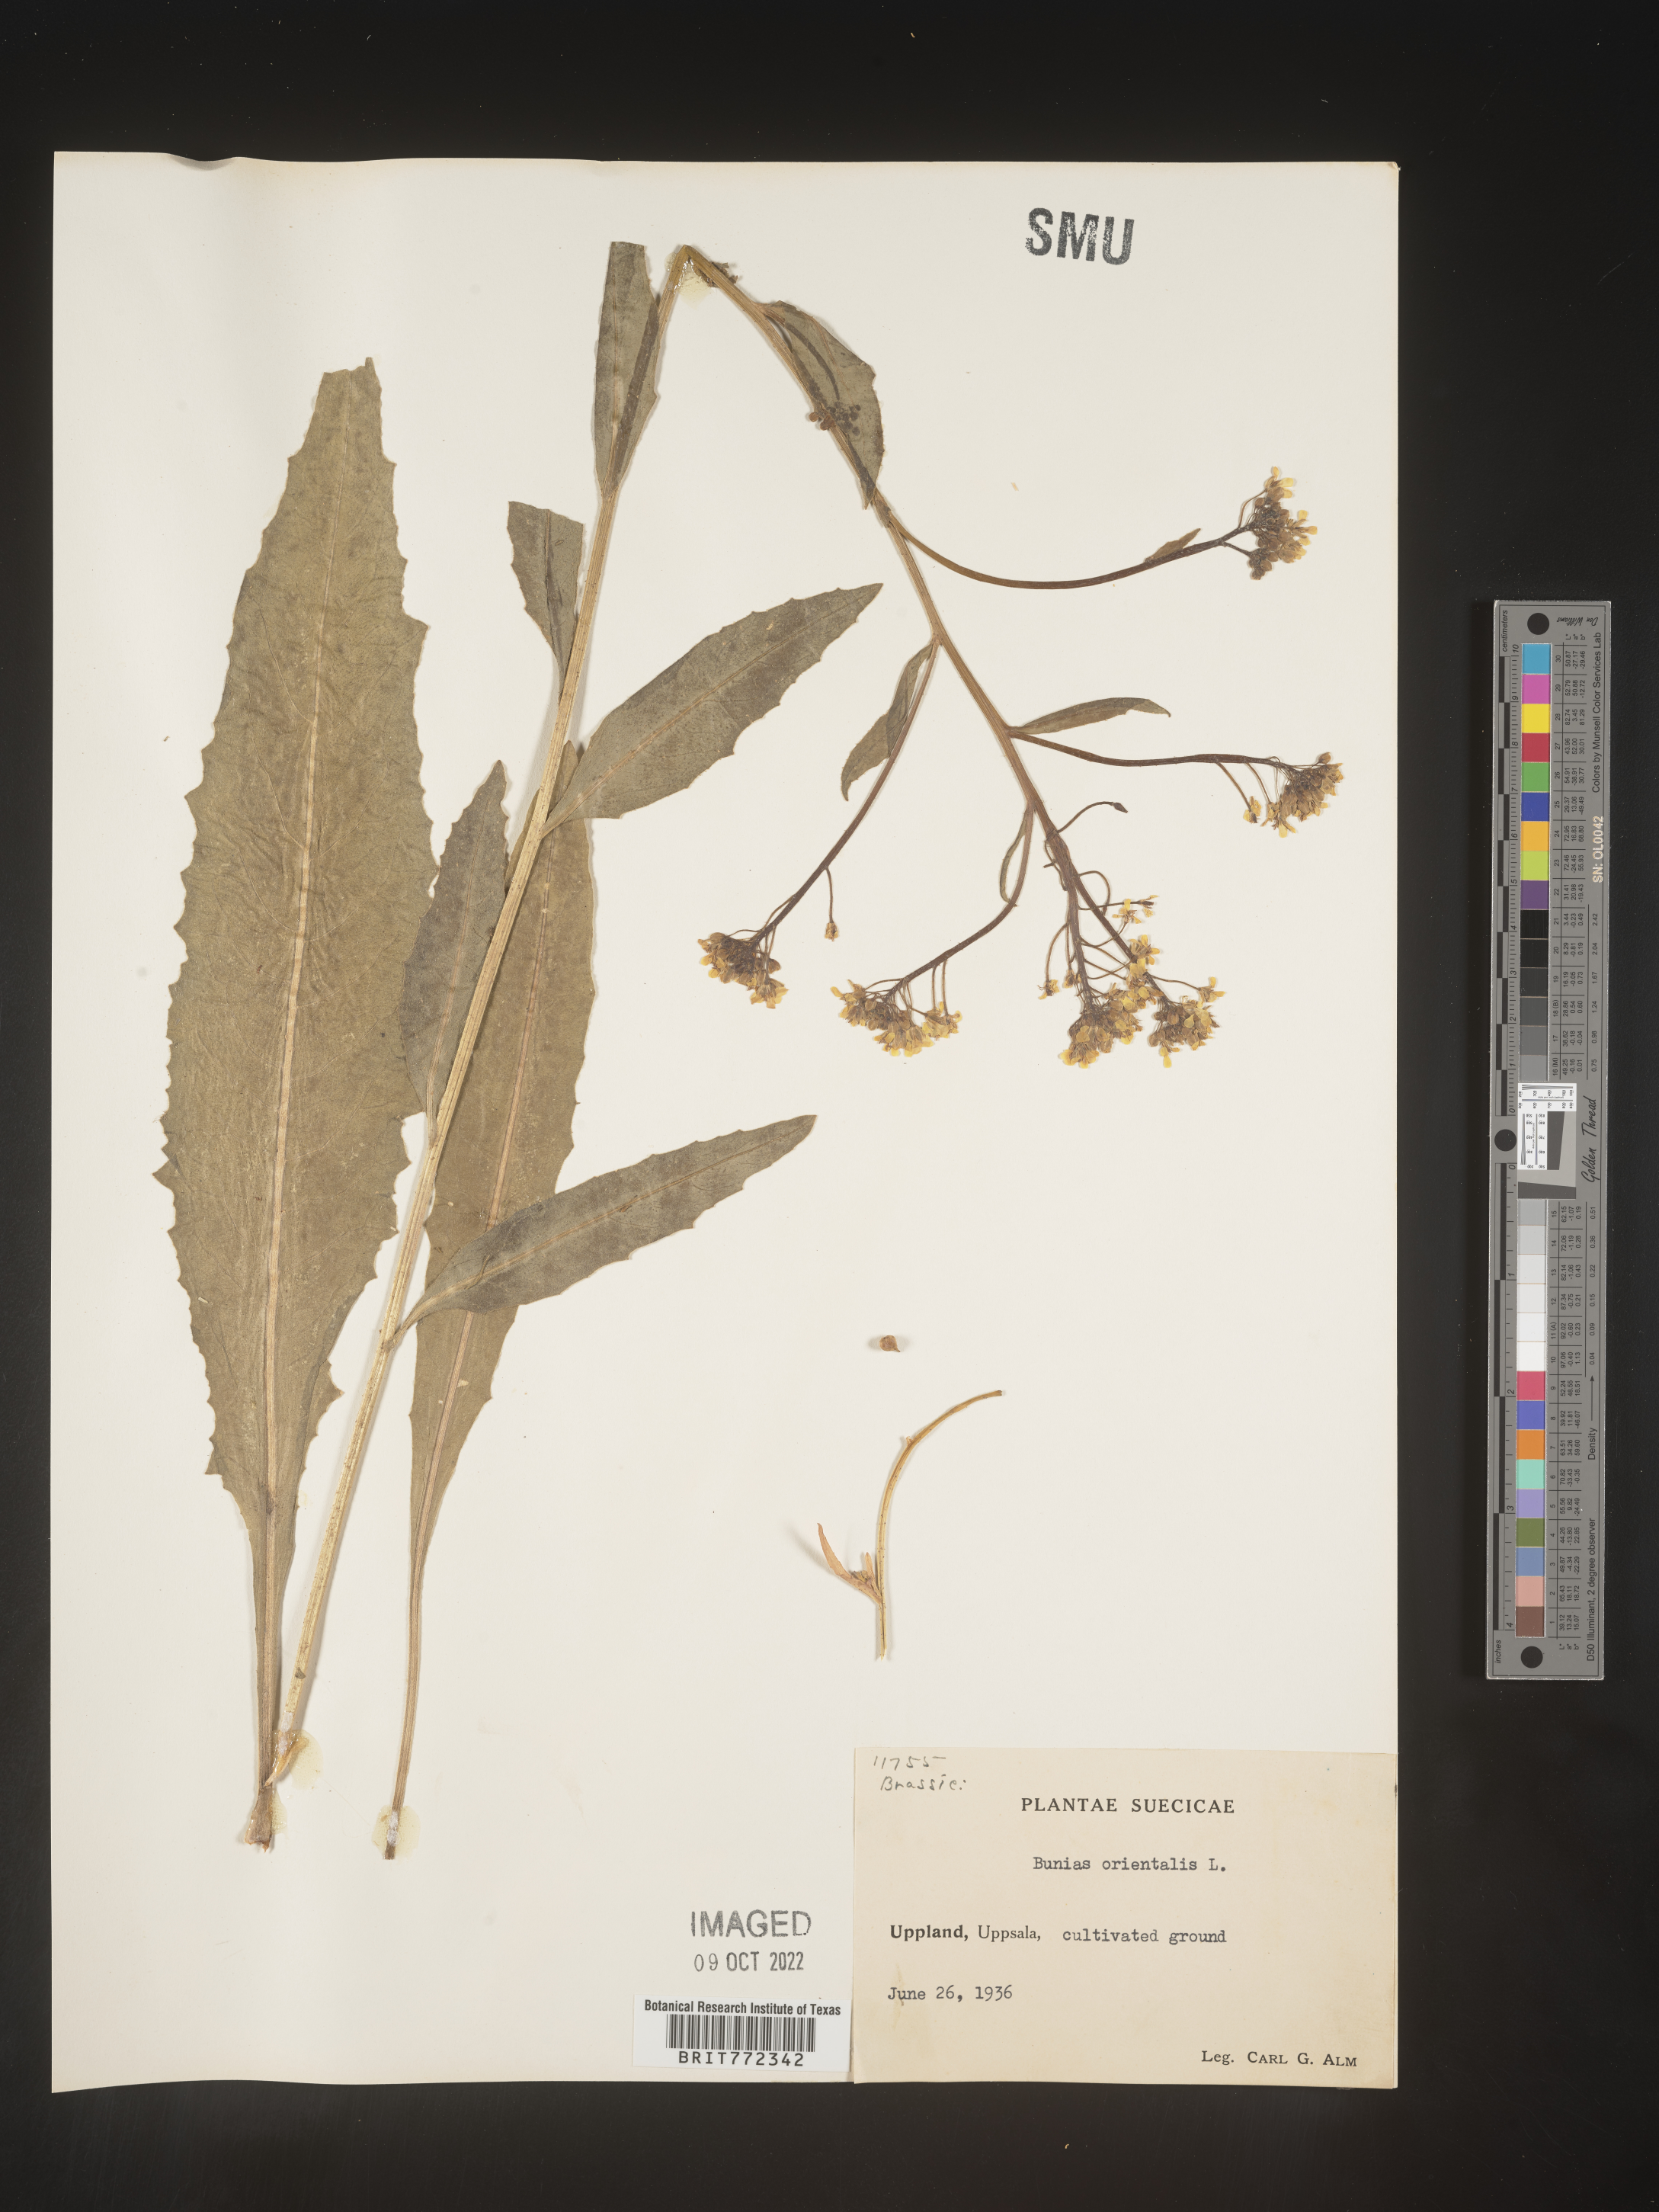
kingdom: Plantae
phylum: Tracheophyta
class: Magnoliopsida
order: Brassicales
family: Brassicaceae
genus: Bunias
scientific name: Bunias
